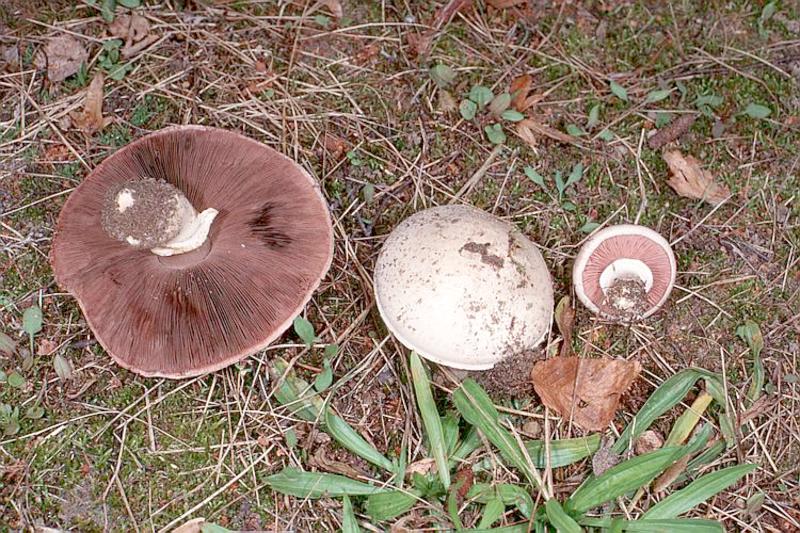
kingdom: Fungi
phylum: Basidiomycota
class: Agaricomycetes
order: Agaricales
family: Agaricaceae
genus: Agaricus
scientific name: Agaricus campestris
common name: Field mushroom
